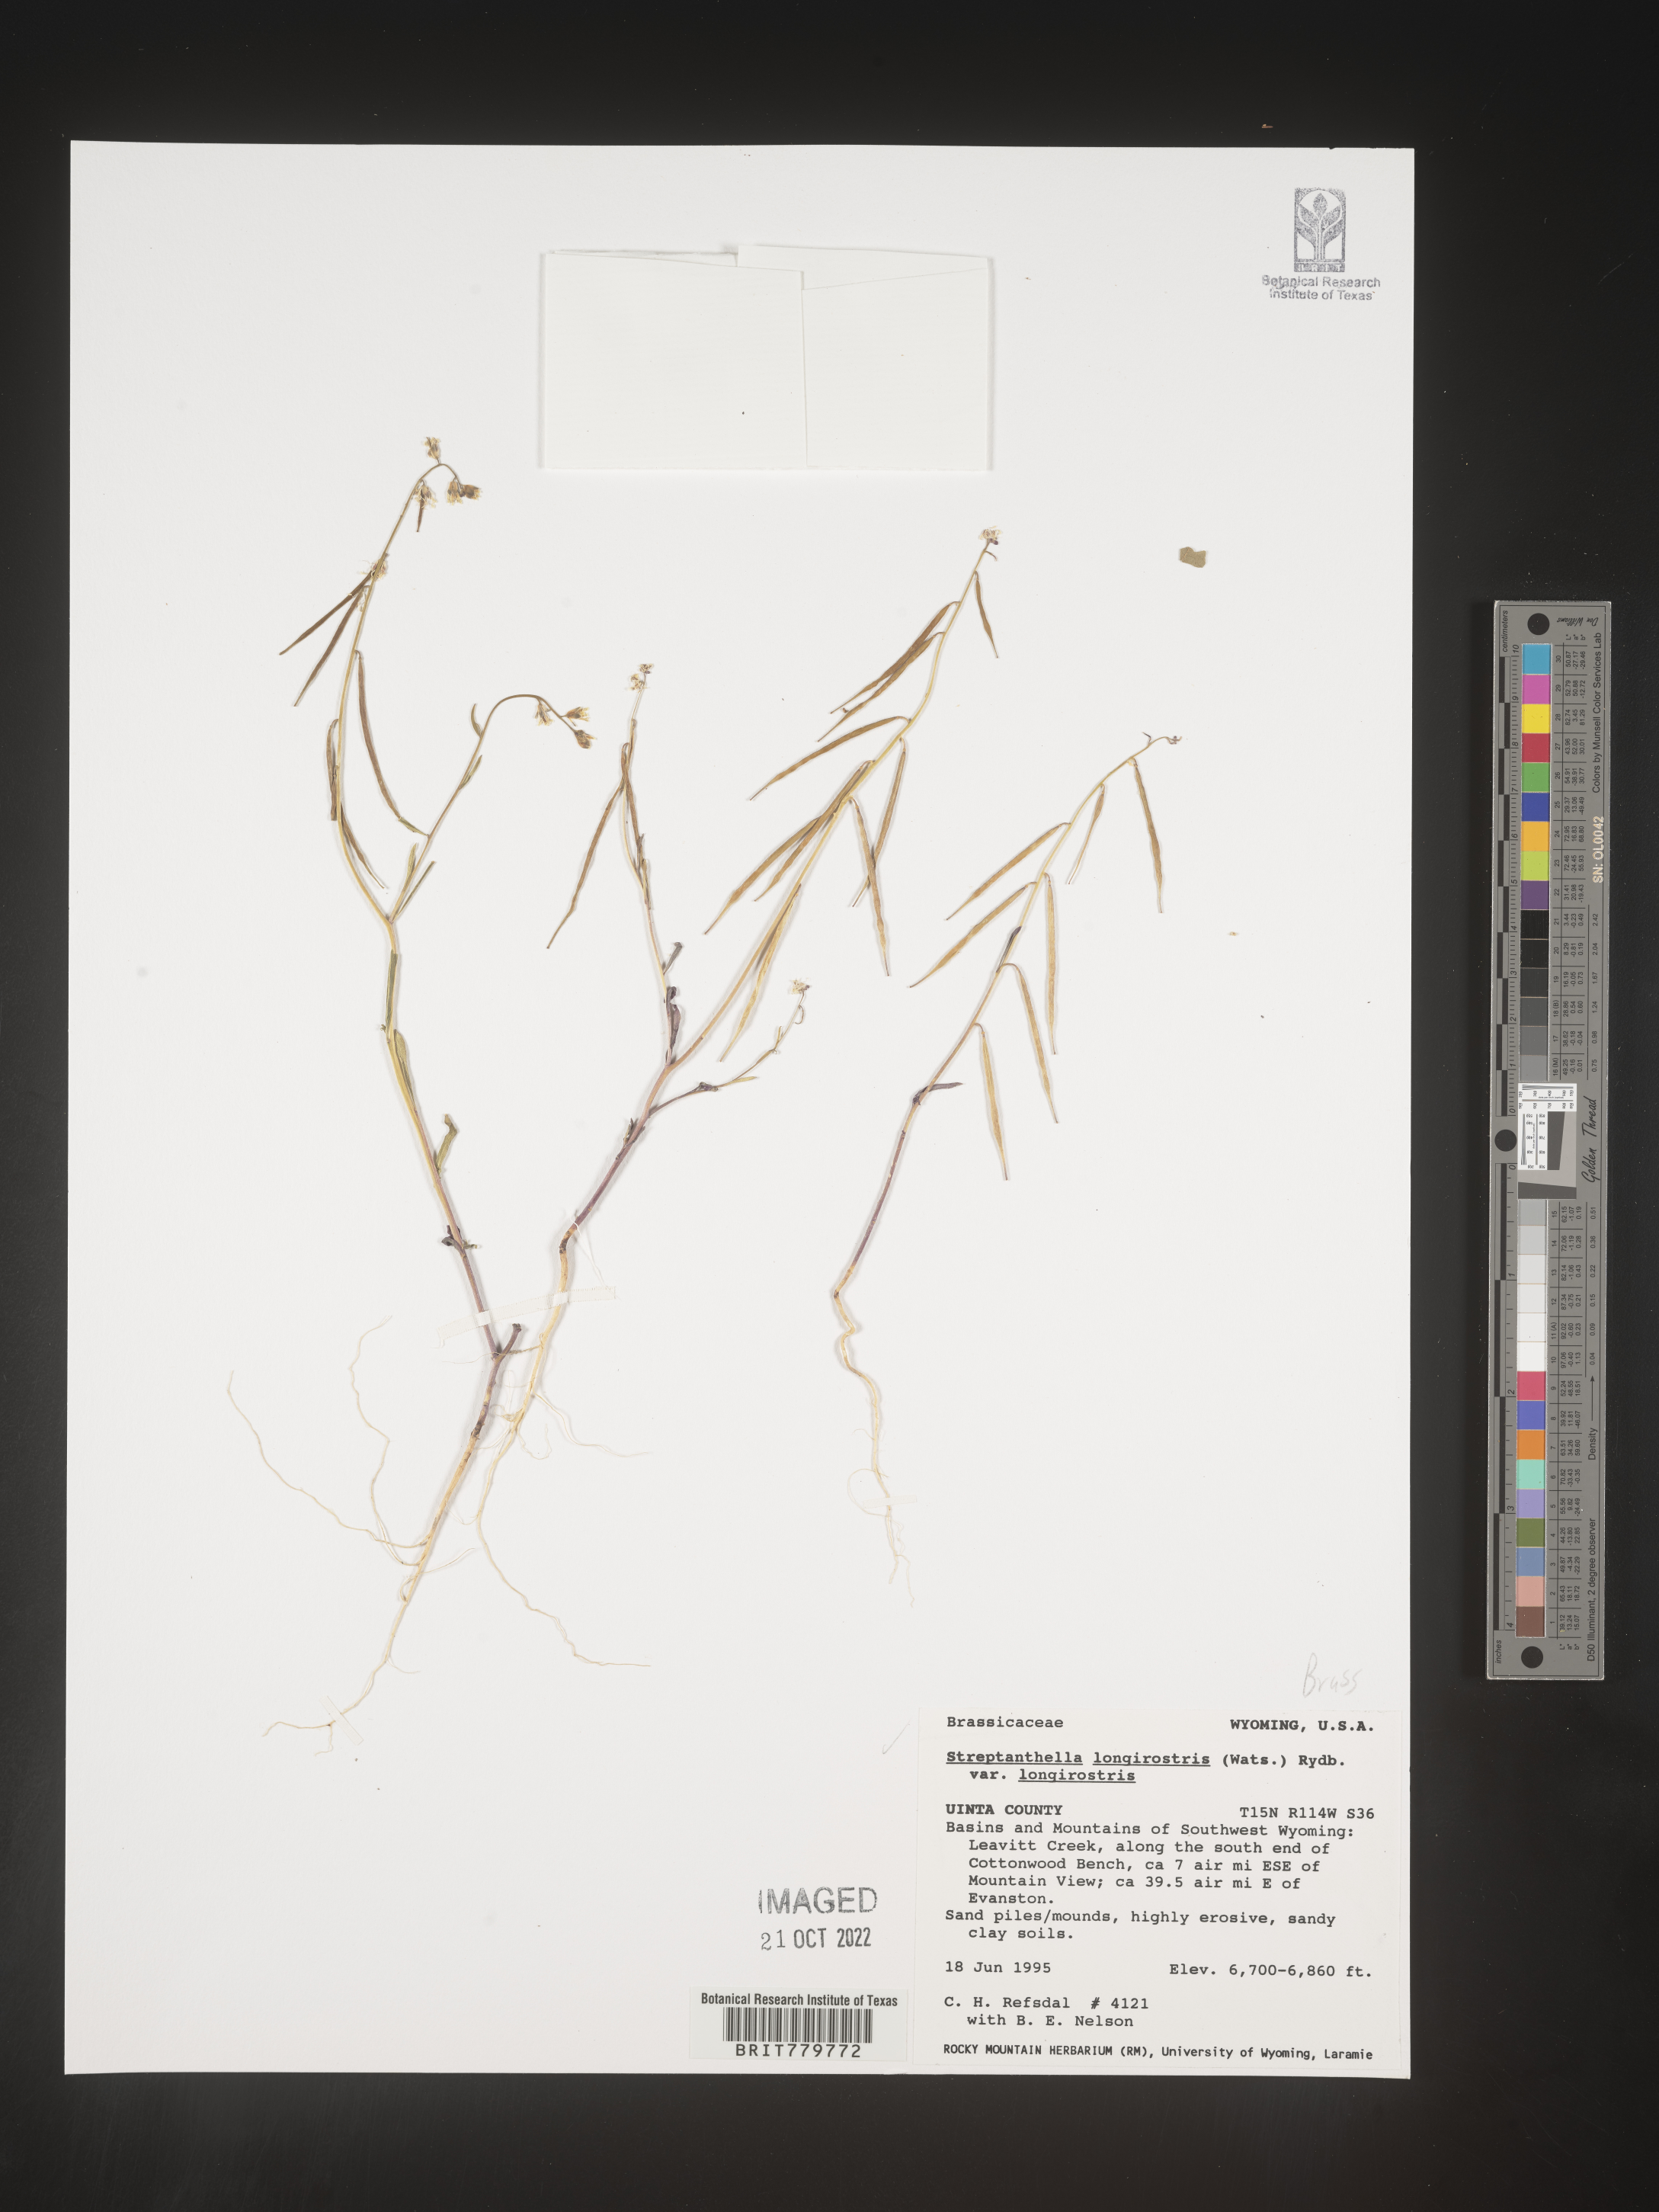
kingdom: Plantae
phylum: Tracheophyta
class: Magnoliopsida
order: Brassicales
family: Brassicaceae
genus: Streptanthus
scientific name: Streptanthus
